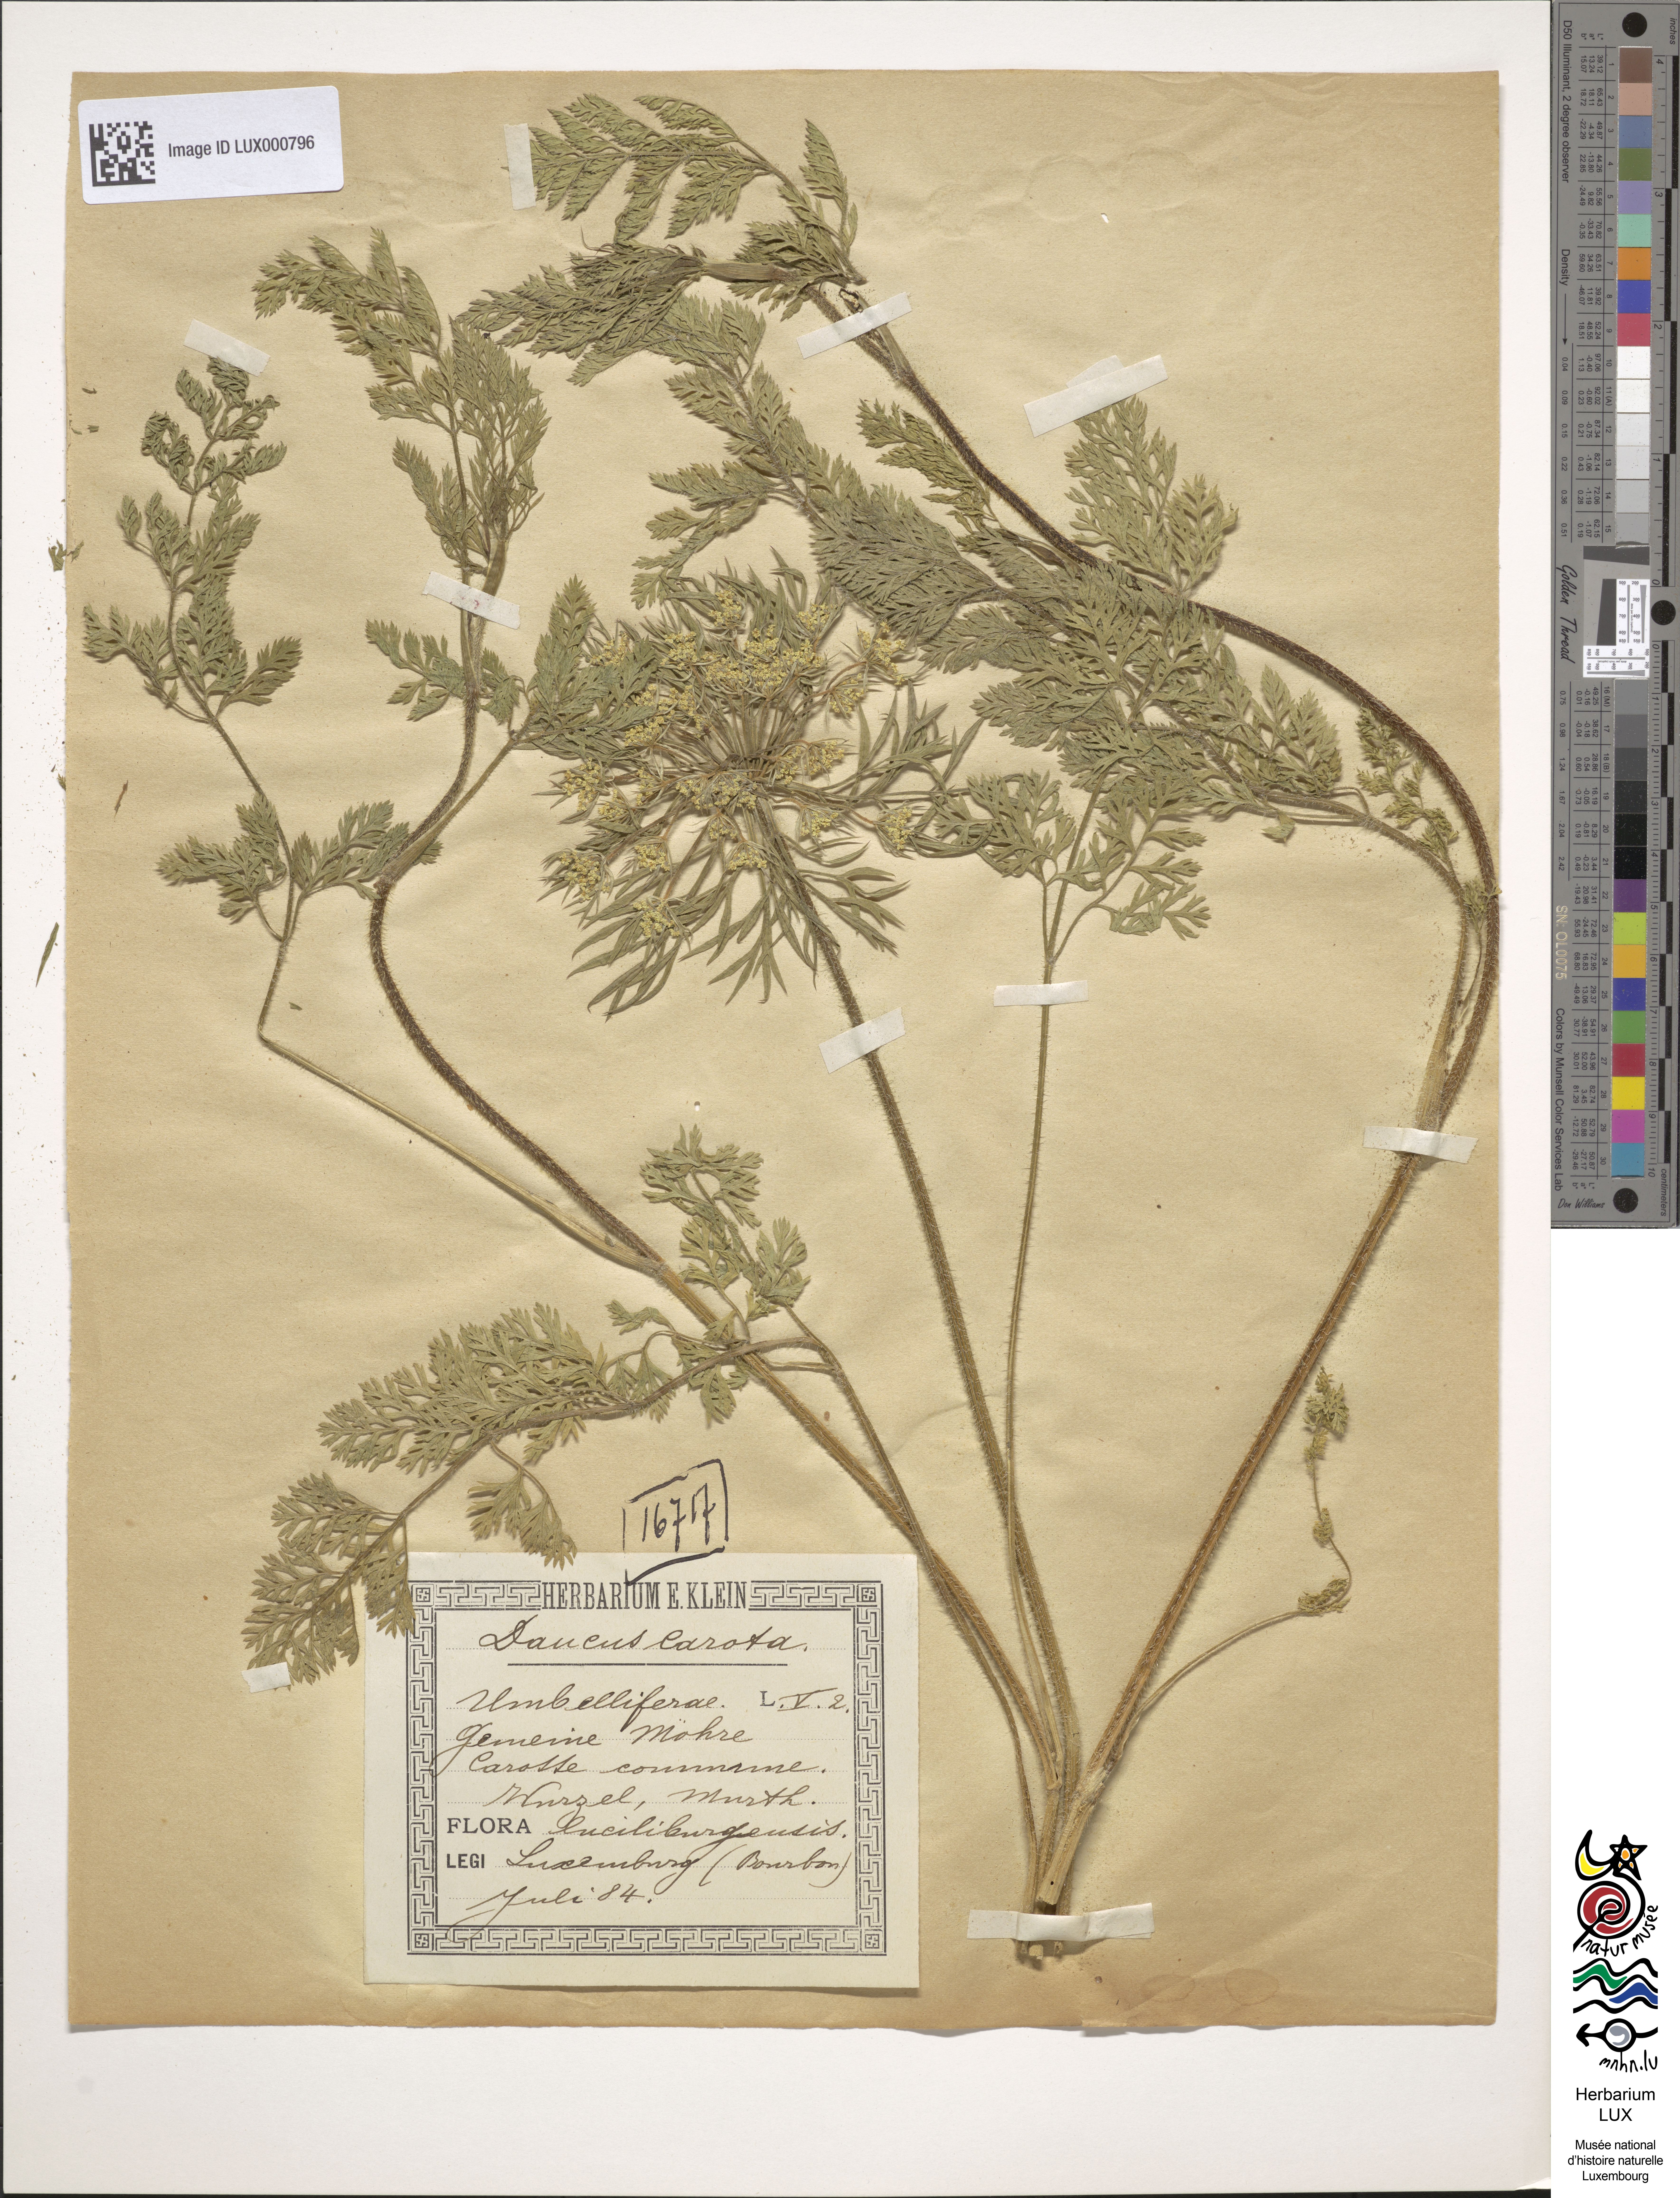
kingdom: Plantae
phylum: Tracheophyta
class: Magnoliopsida
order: Apiales
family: Apiaceae
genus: Daucus
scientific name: Daucus carota
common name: Wild carrot
